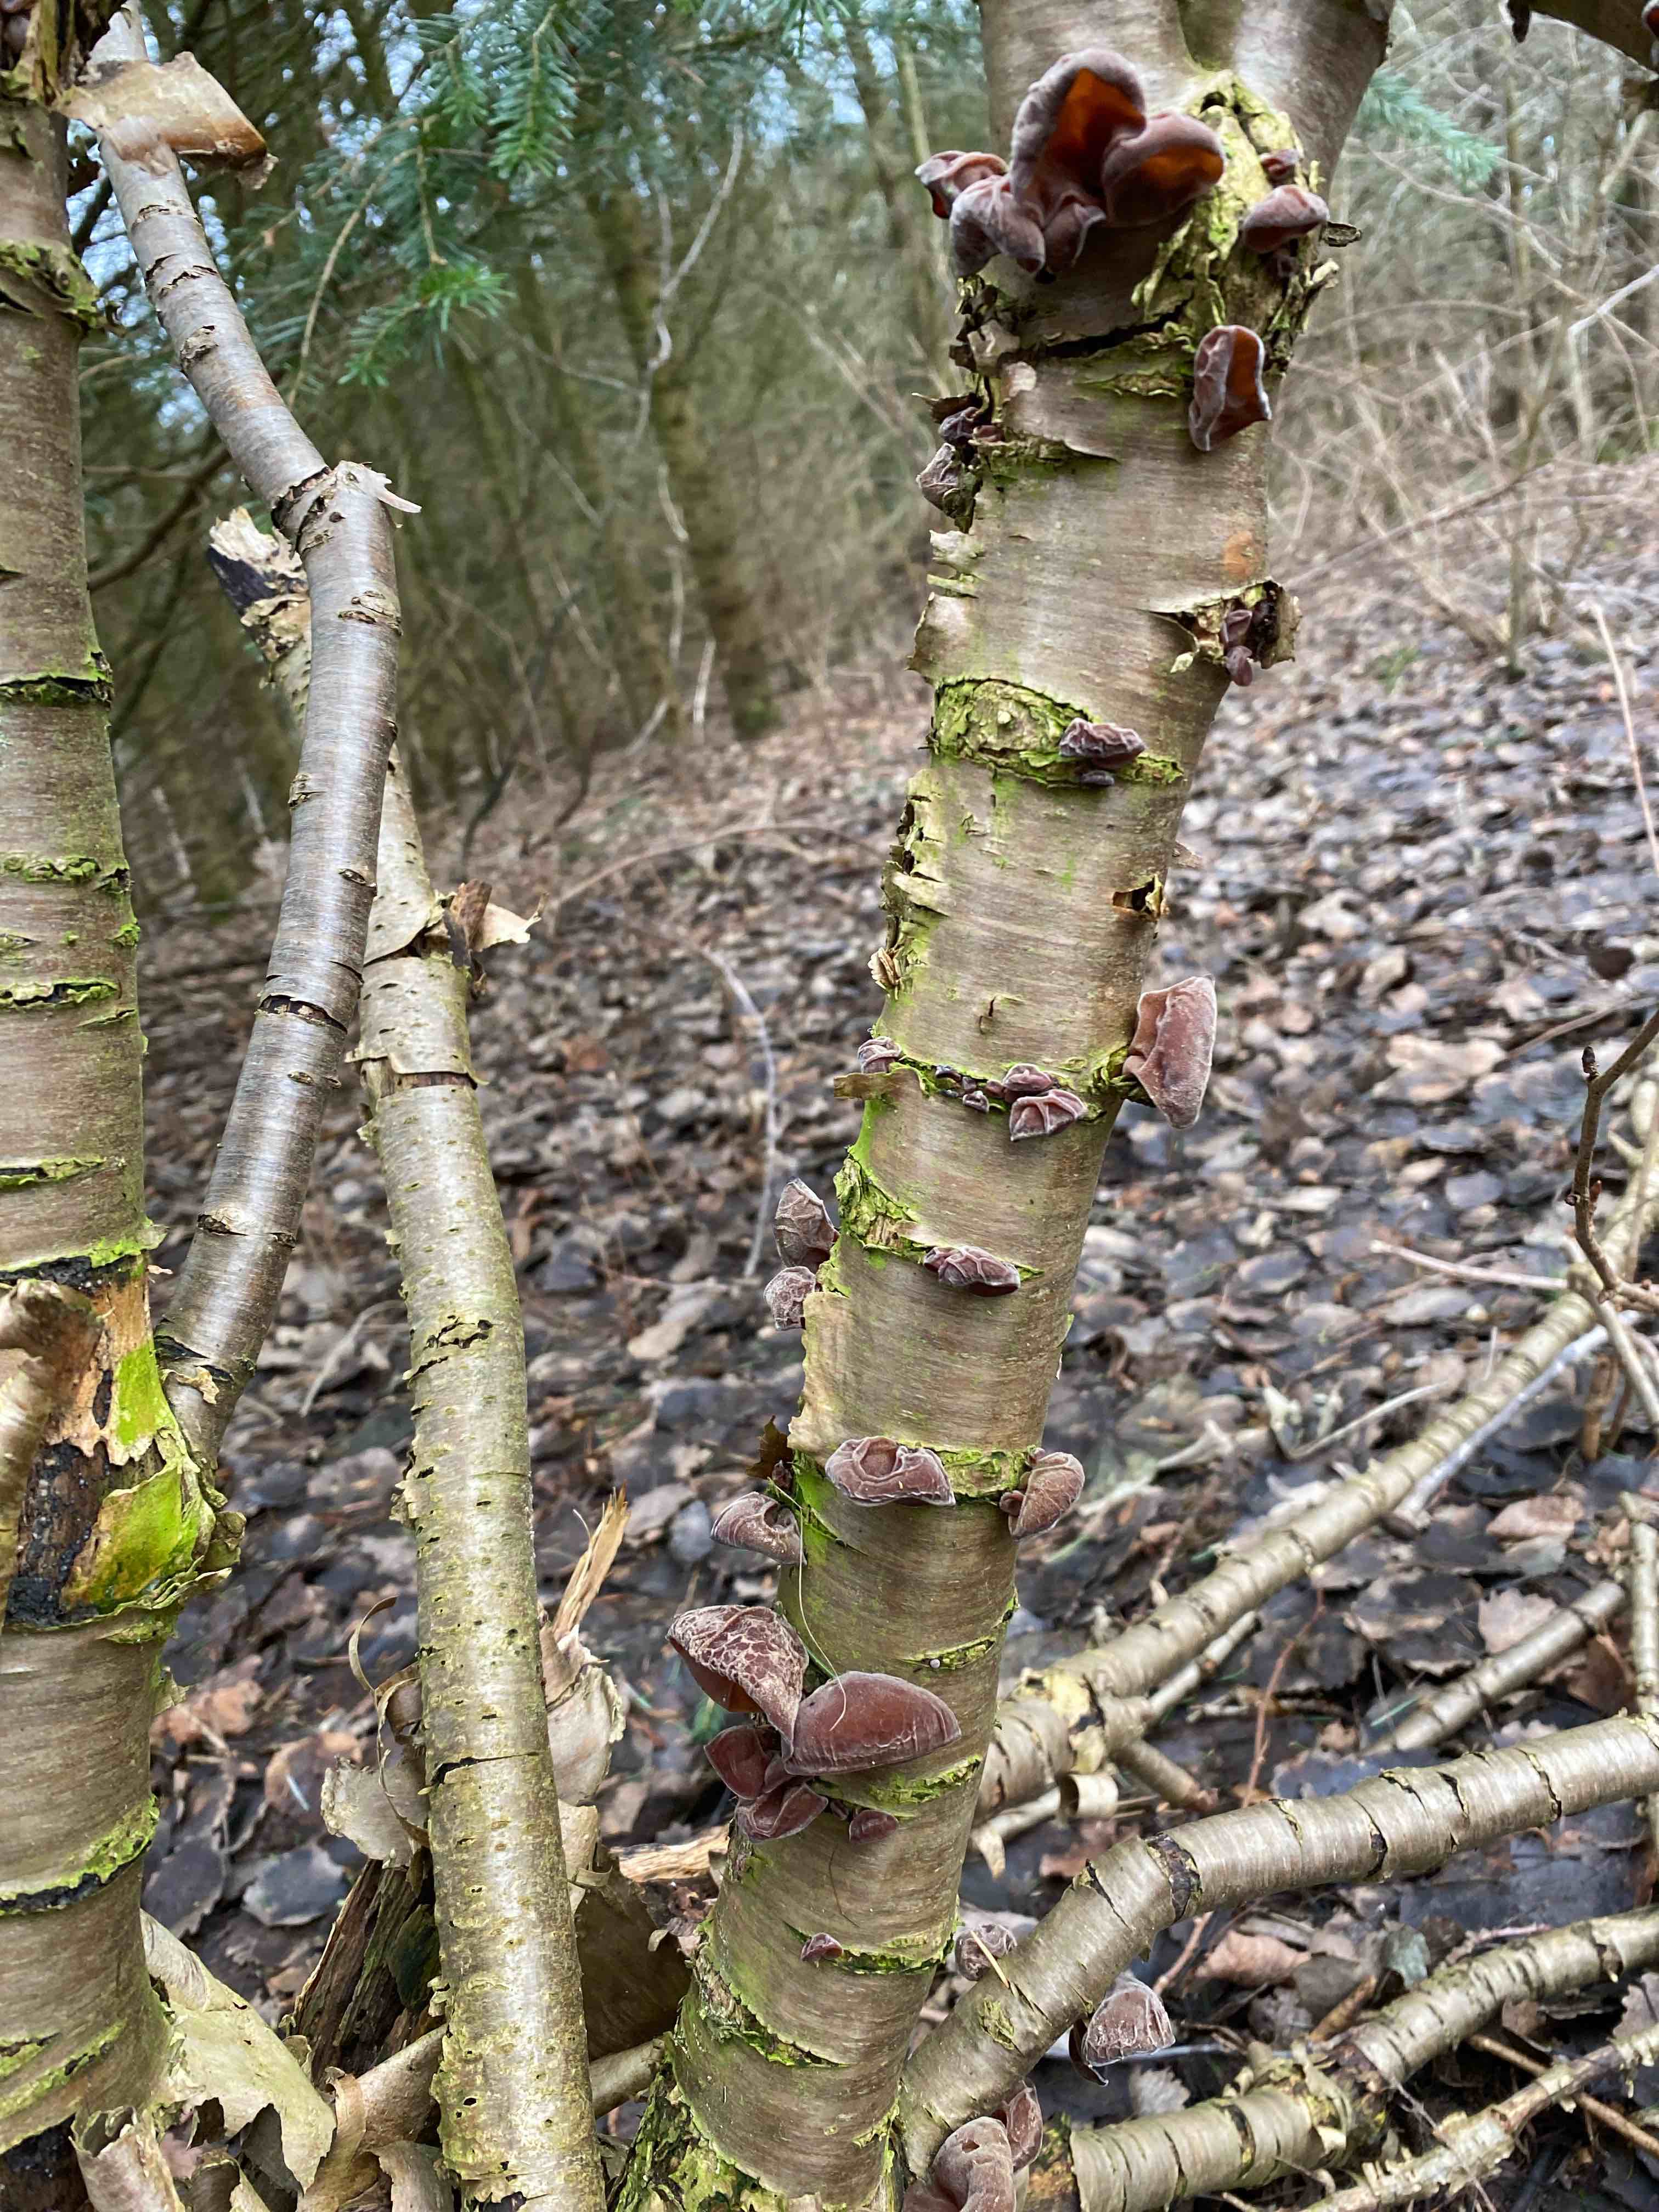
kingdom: Fungi
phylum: Basidiomycota
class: Agaricomycetes
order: Auriculariales
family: Auriculariaceae
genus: Auricularia
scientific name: Auricularia auricula-judae
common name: almindelig judasøre
